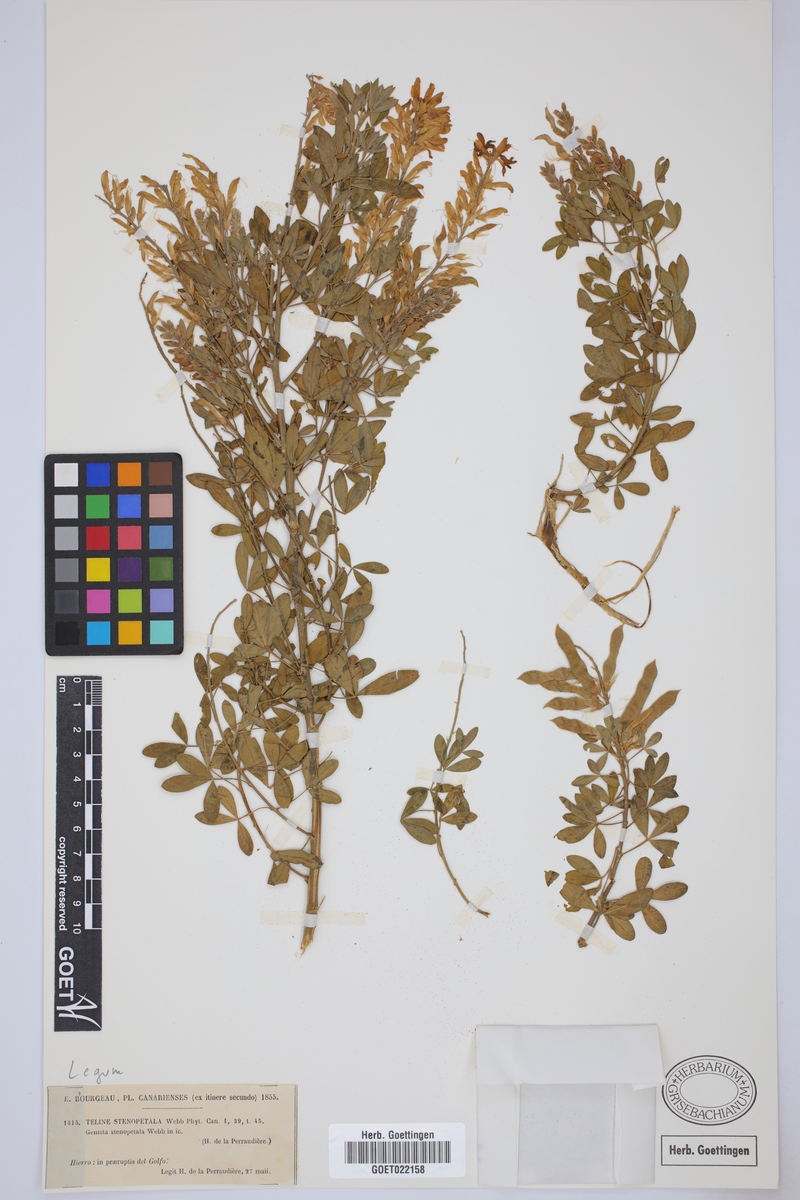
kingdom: Plantae
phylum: Tracheophyta
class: Magnoliopsida
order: Fabales
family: Fabaceae
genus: Genista
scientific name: Genista stenopetala
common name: Leafy broom
